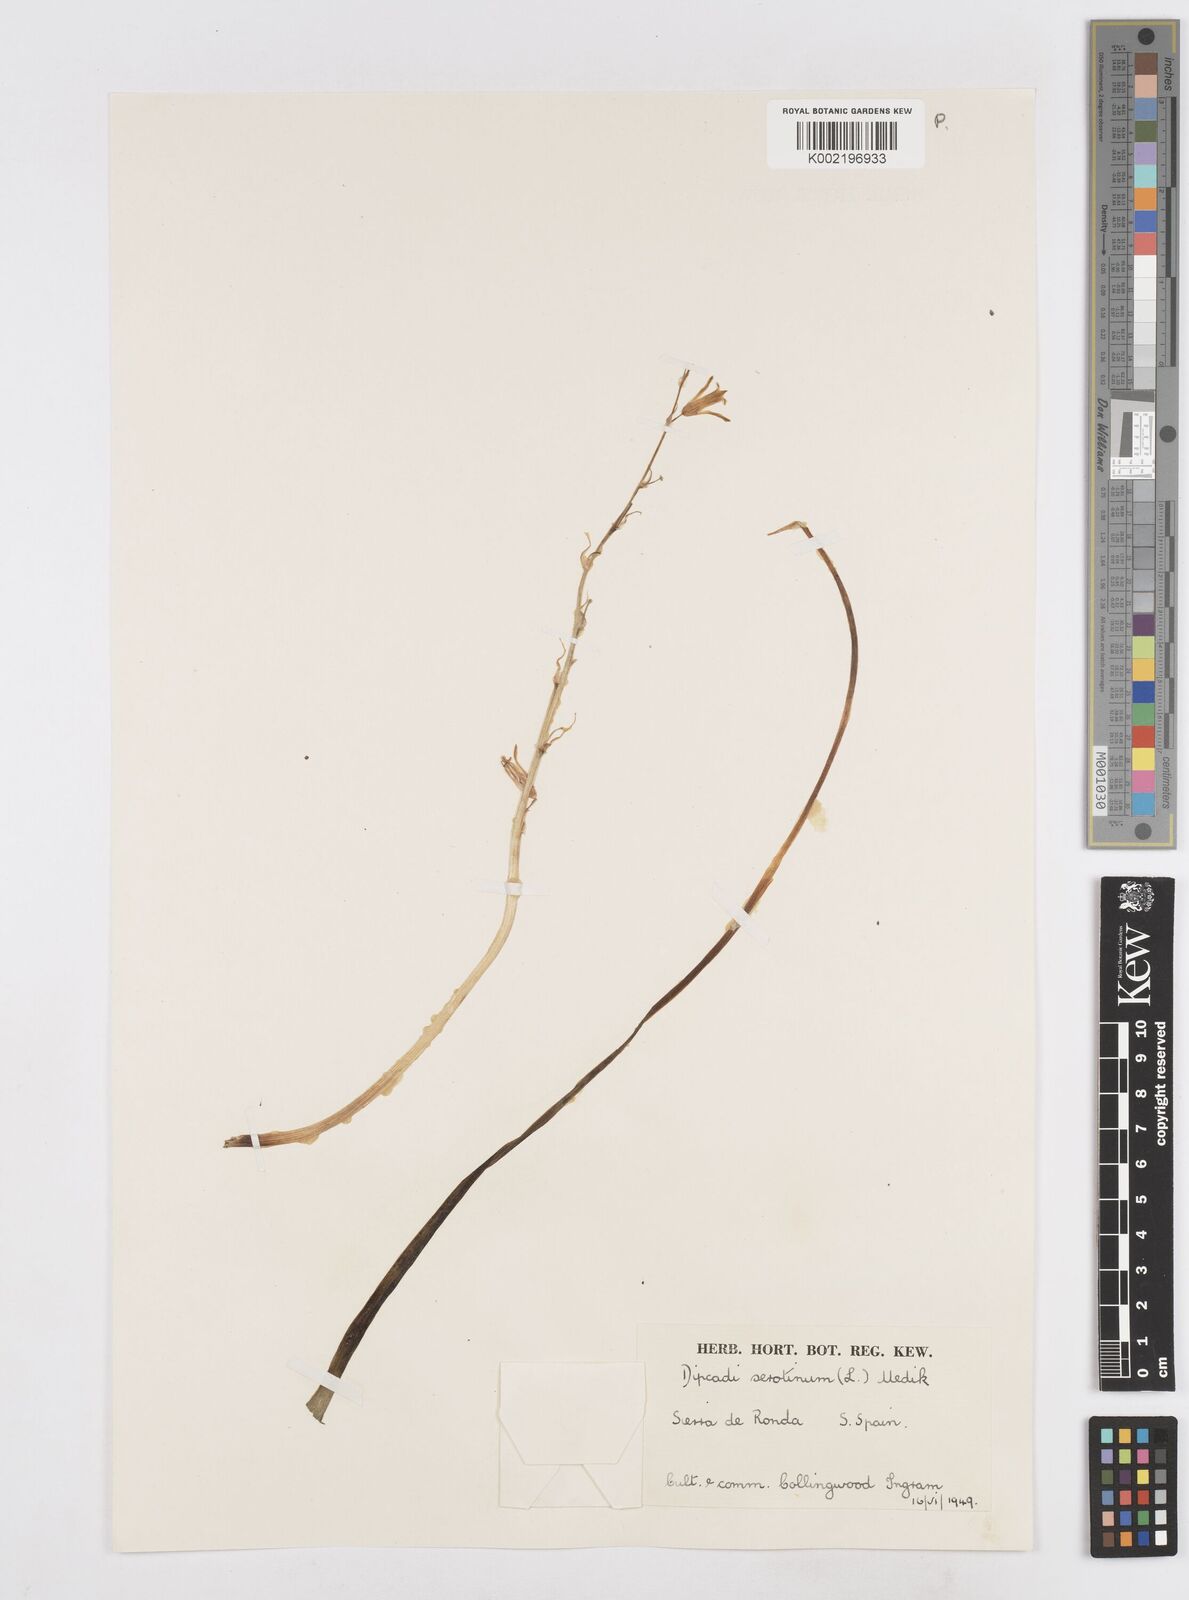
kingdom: Plantae
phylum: Tracheophyta
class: Liliopsida
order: Asparagales
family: Asparagaceae
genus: Dipcadi
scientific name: Dipcadi serotinum
